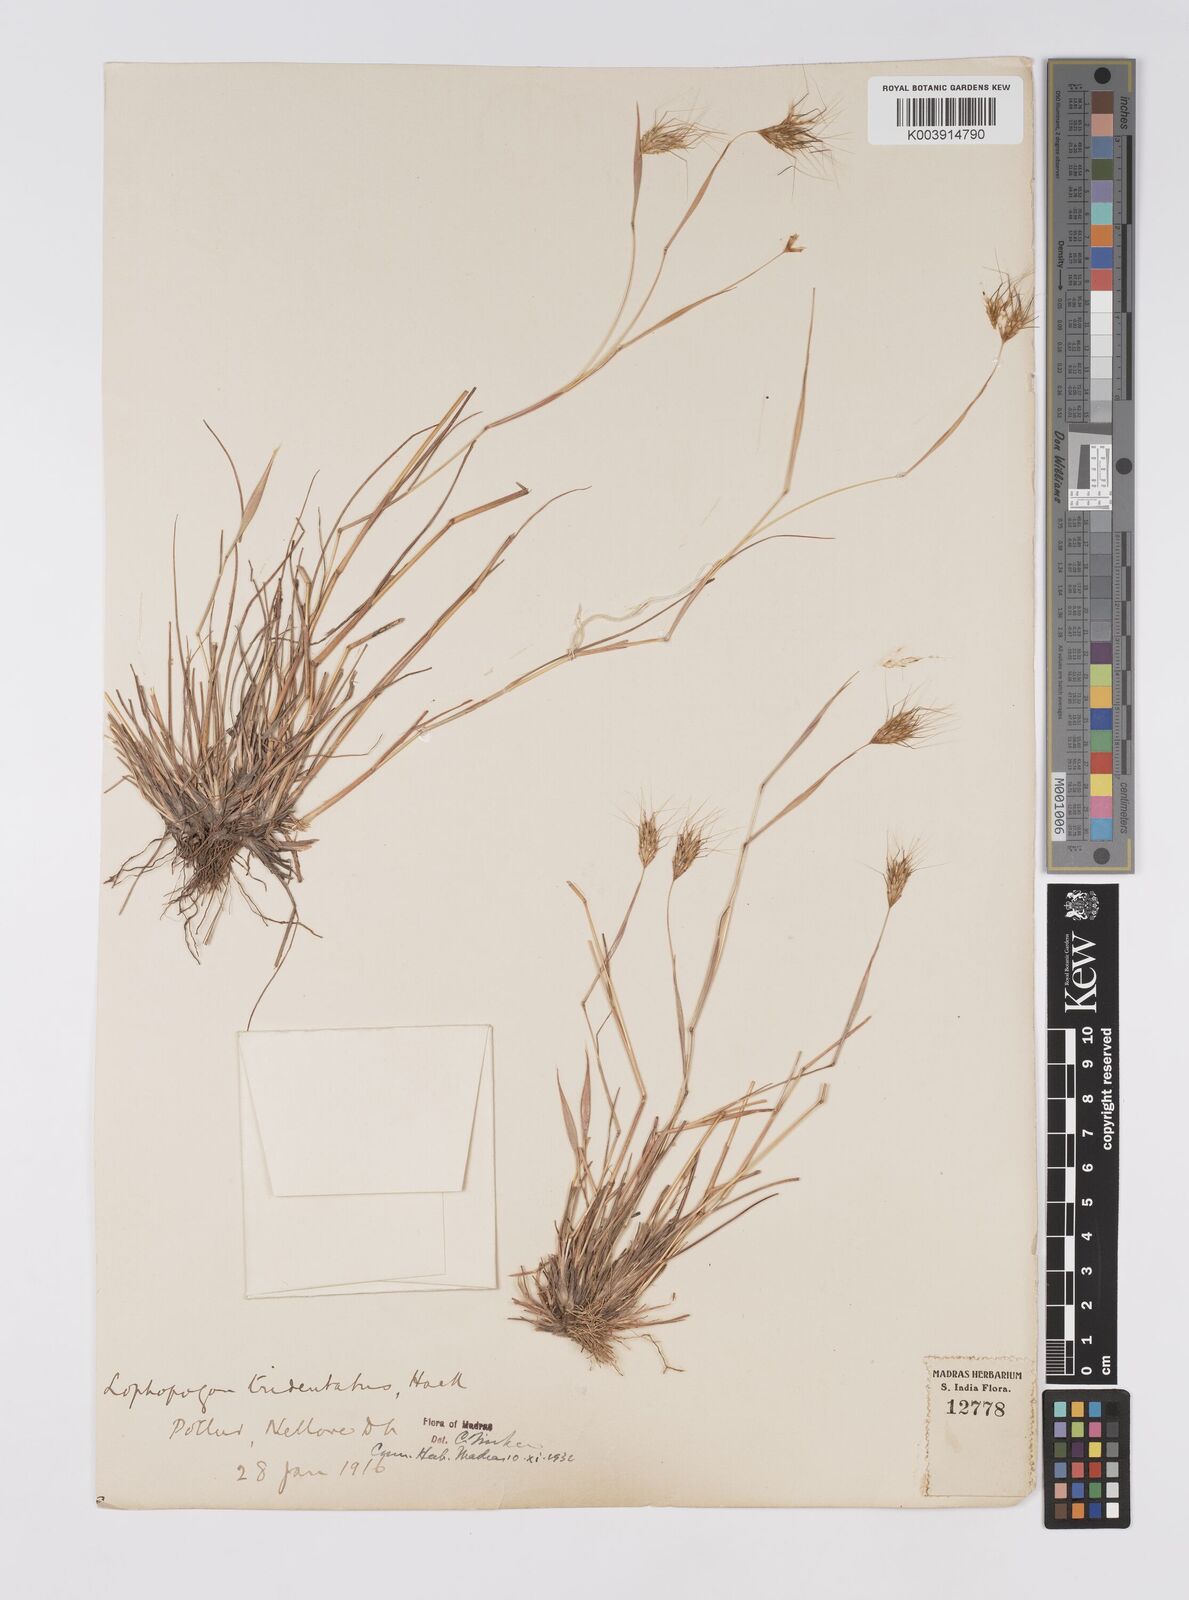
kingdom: Plantae
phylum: Tracheophyta
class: Liliopsida
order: Poales
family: Poaceae
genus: Lophopogon
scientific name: Lophopogon tridentatus
